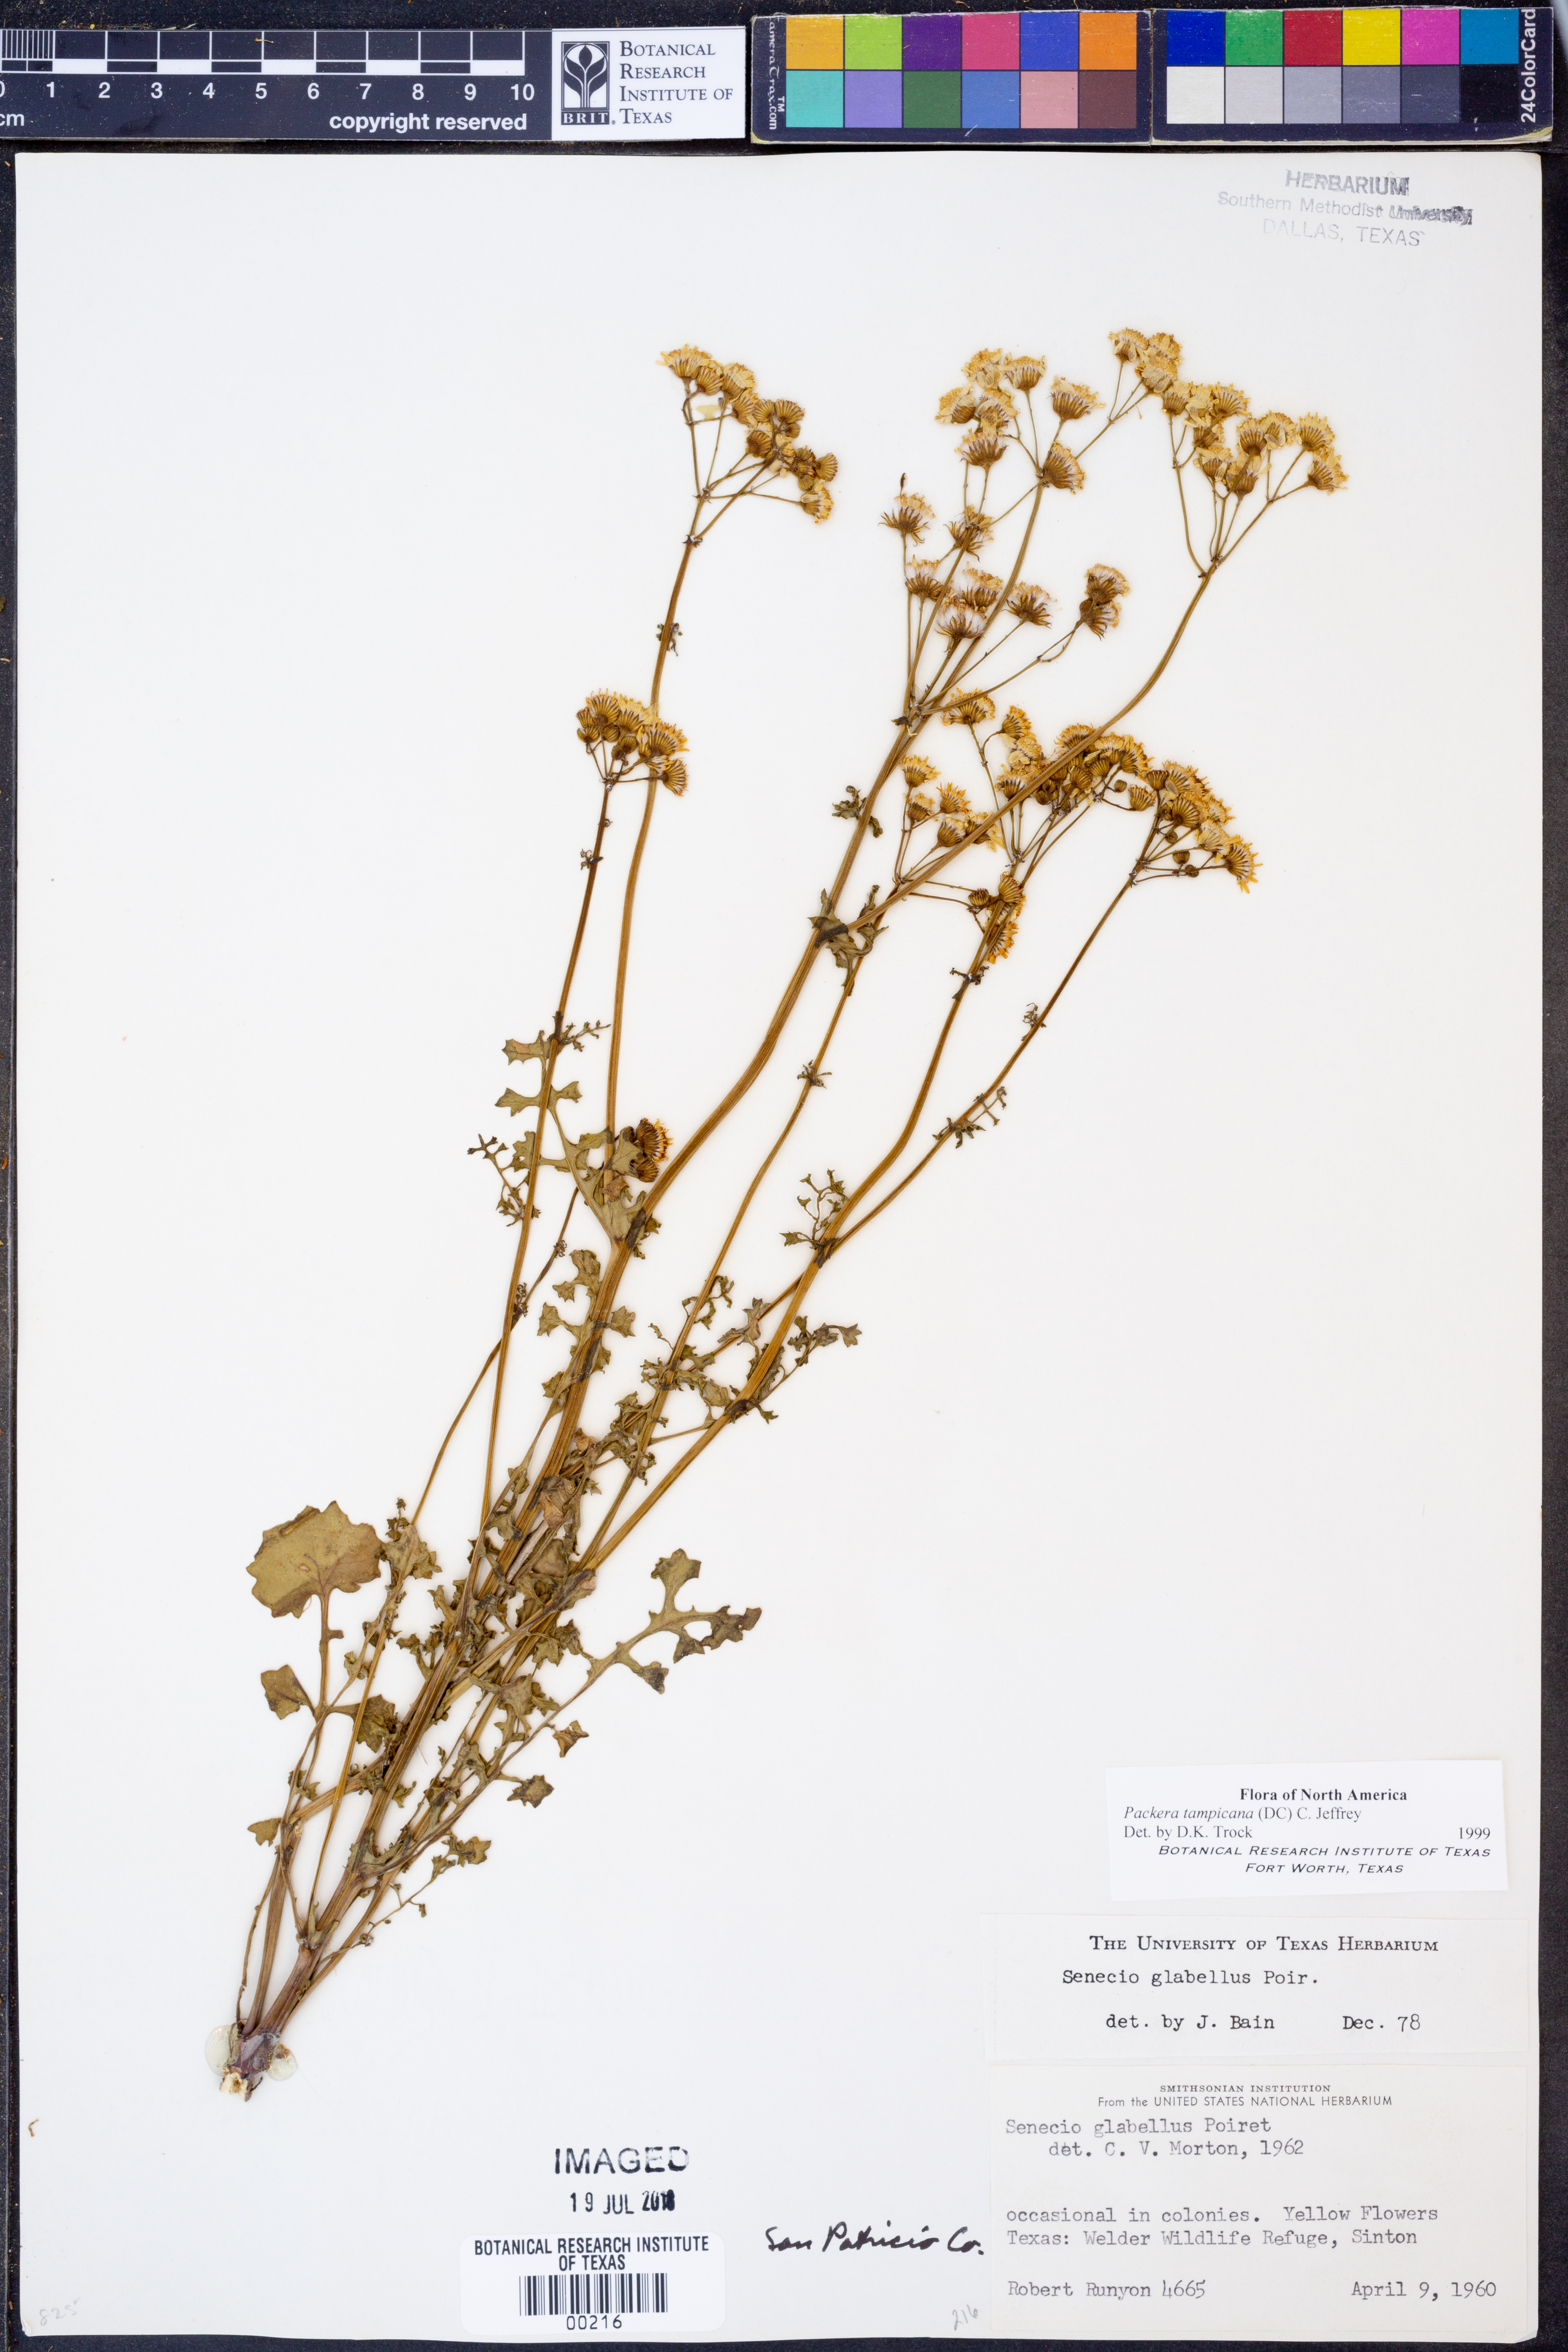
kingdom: Plantae
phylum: Tracheophyta
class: Magnoliopsida
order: Asterales
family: Asteraceae
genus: Packera
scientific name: Packera tampicana
